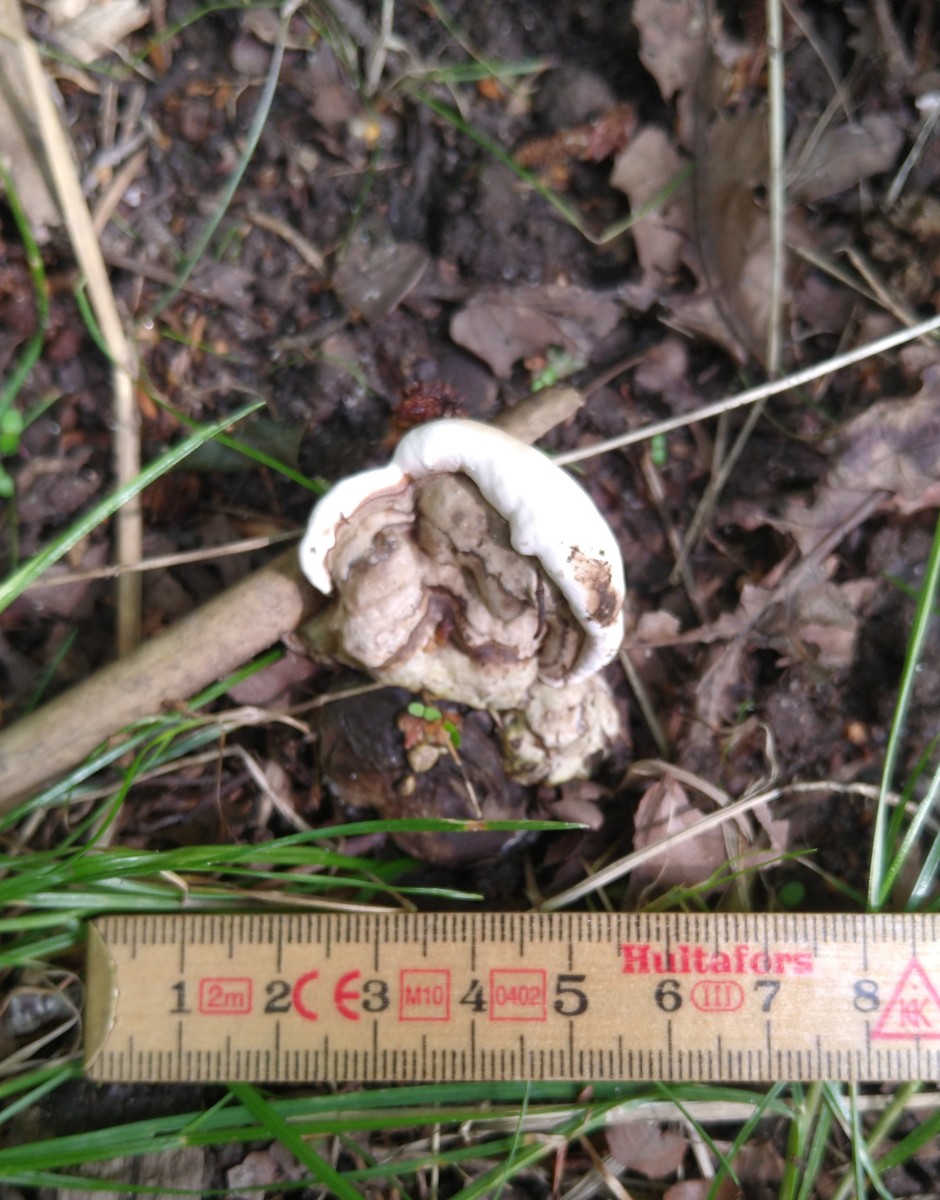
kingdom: Fungi
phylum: Basidiomycota
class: Agaricomycetes
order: Polyporales
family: Polyporaceae
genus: Ganoderma
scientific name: Ganoderma applanatum
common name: flad lakporesvamp
